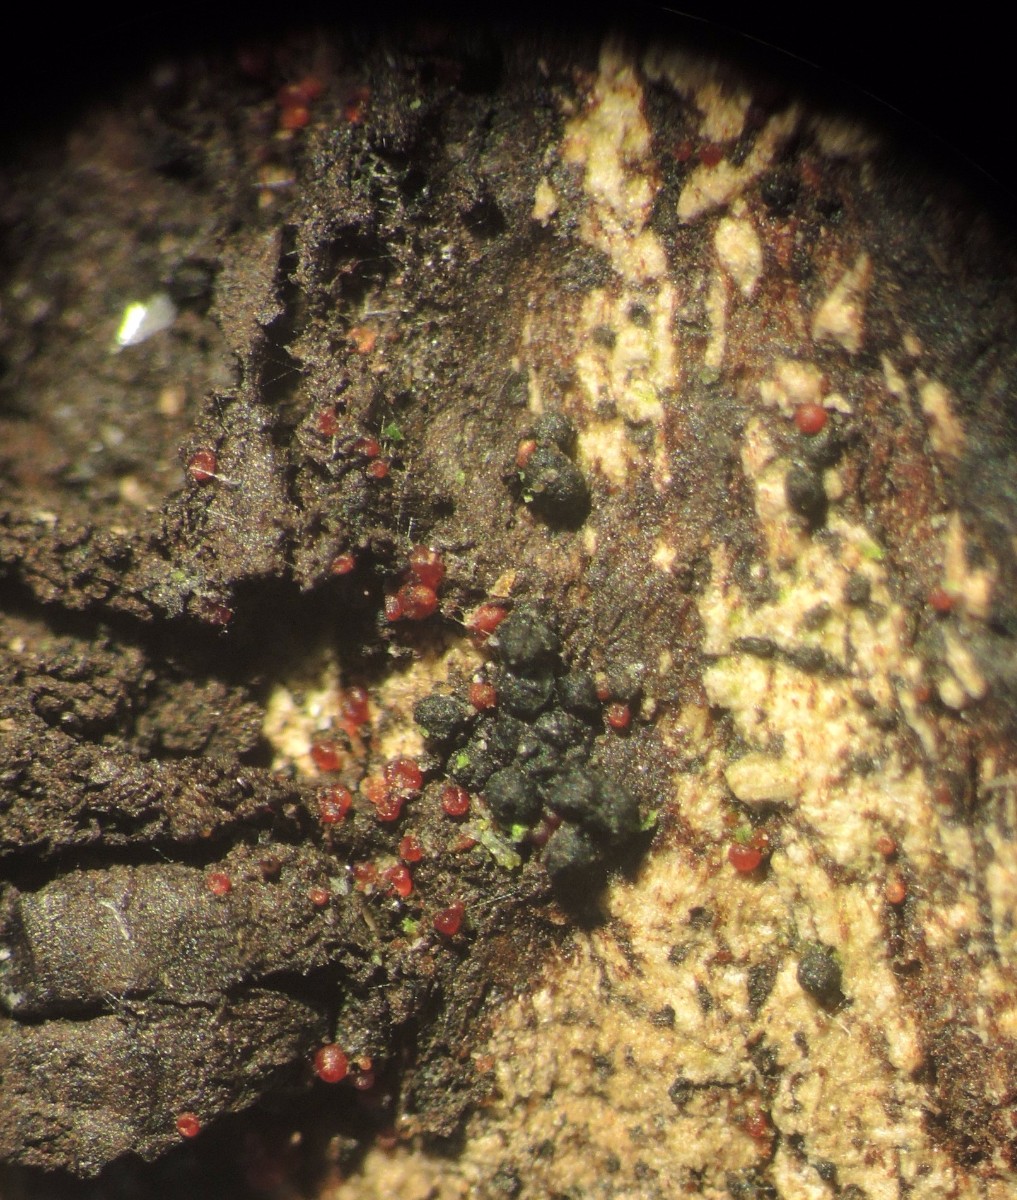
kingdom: Fungi
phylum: Ascomycota
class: Sordariomycetes
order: Hypocreales
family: Nectriaceae
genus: Dialonectria
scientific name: Dialonectria episphaeria
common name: kulskorpe-cinnobersvamp
